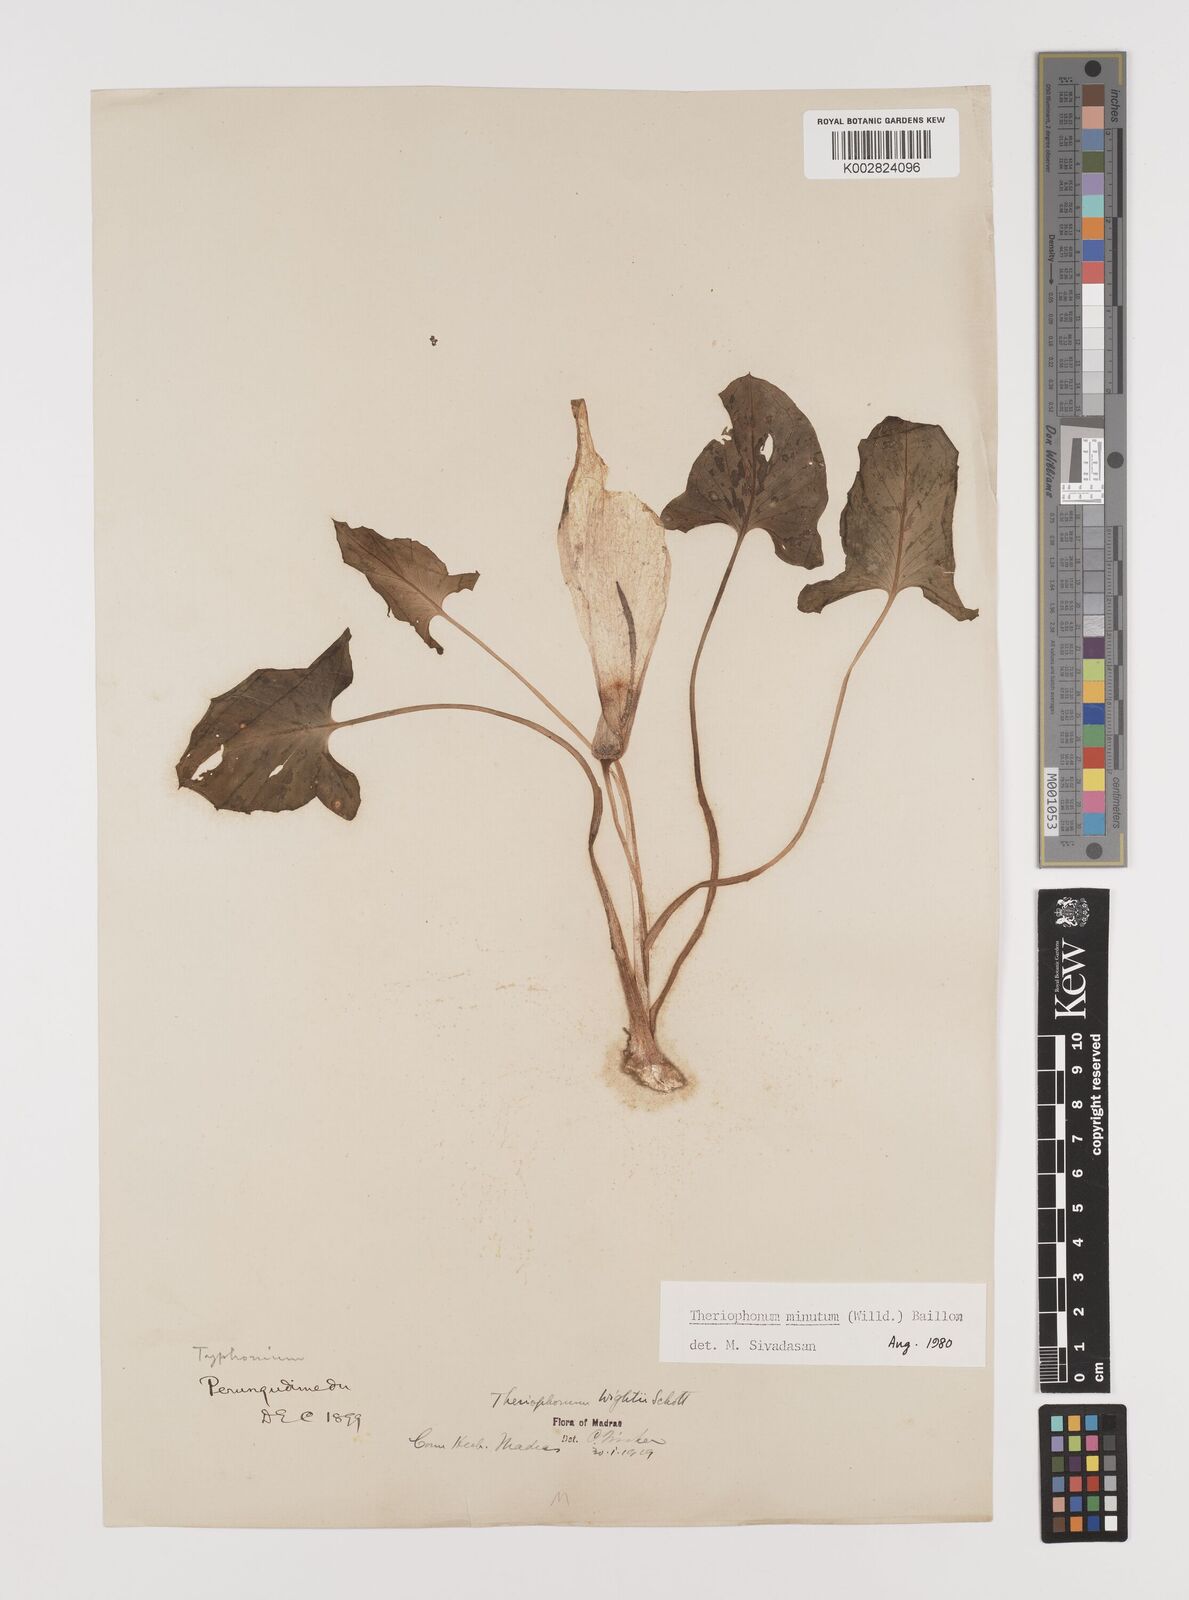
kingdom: Plantae
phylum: Tracheophyta
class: Liliopsida
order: Alismatales
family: Araceae
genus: Theriophonum
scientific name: Theriophonum minutum
